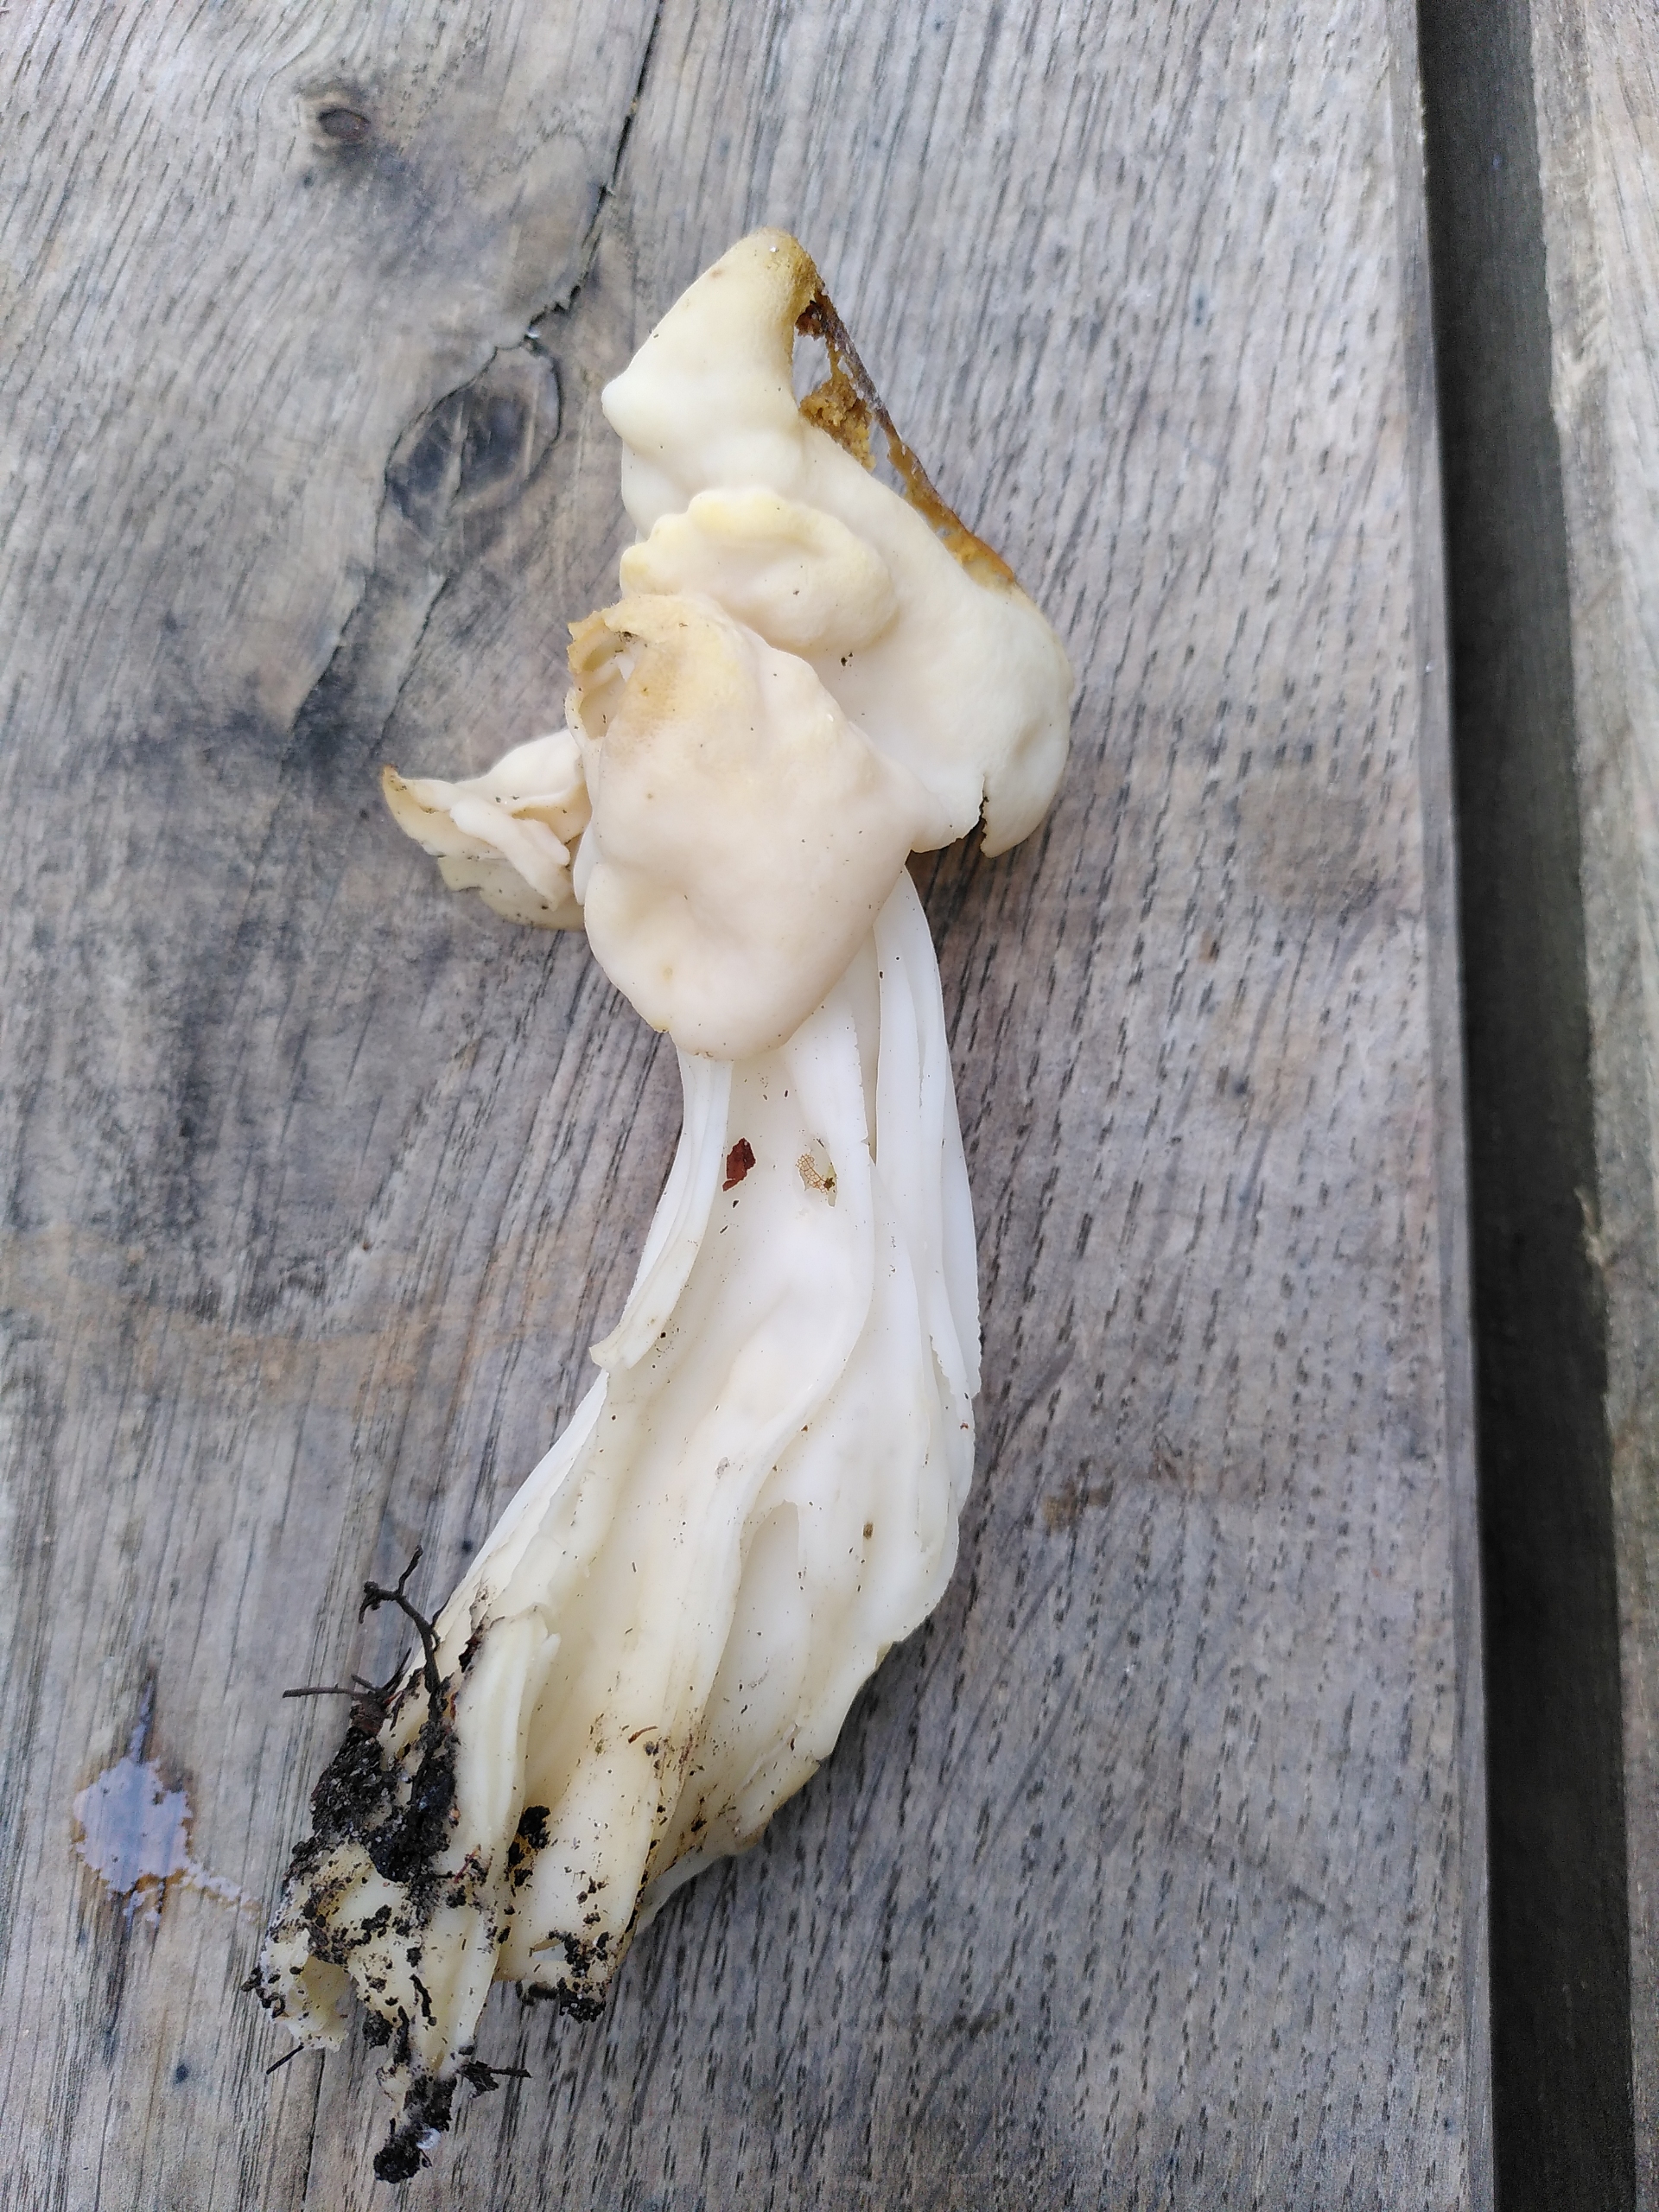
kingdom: Fungi
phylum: Ascomycota
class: Pezizomycetes
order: Pezizales
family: Helvellaceae
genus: Helvella
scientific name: Helvella crispa
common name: Kruset foldhat
